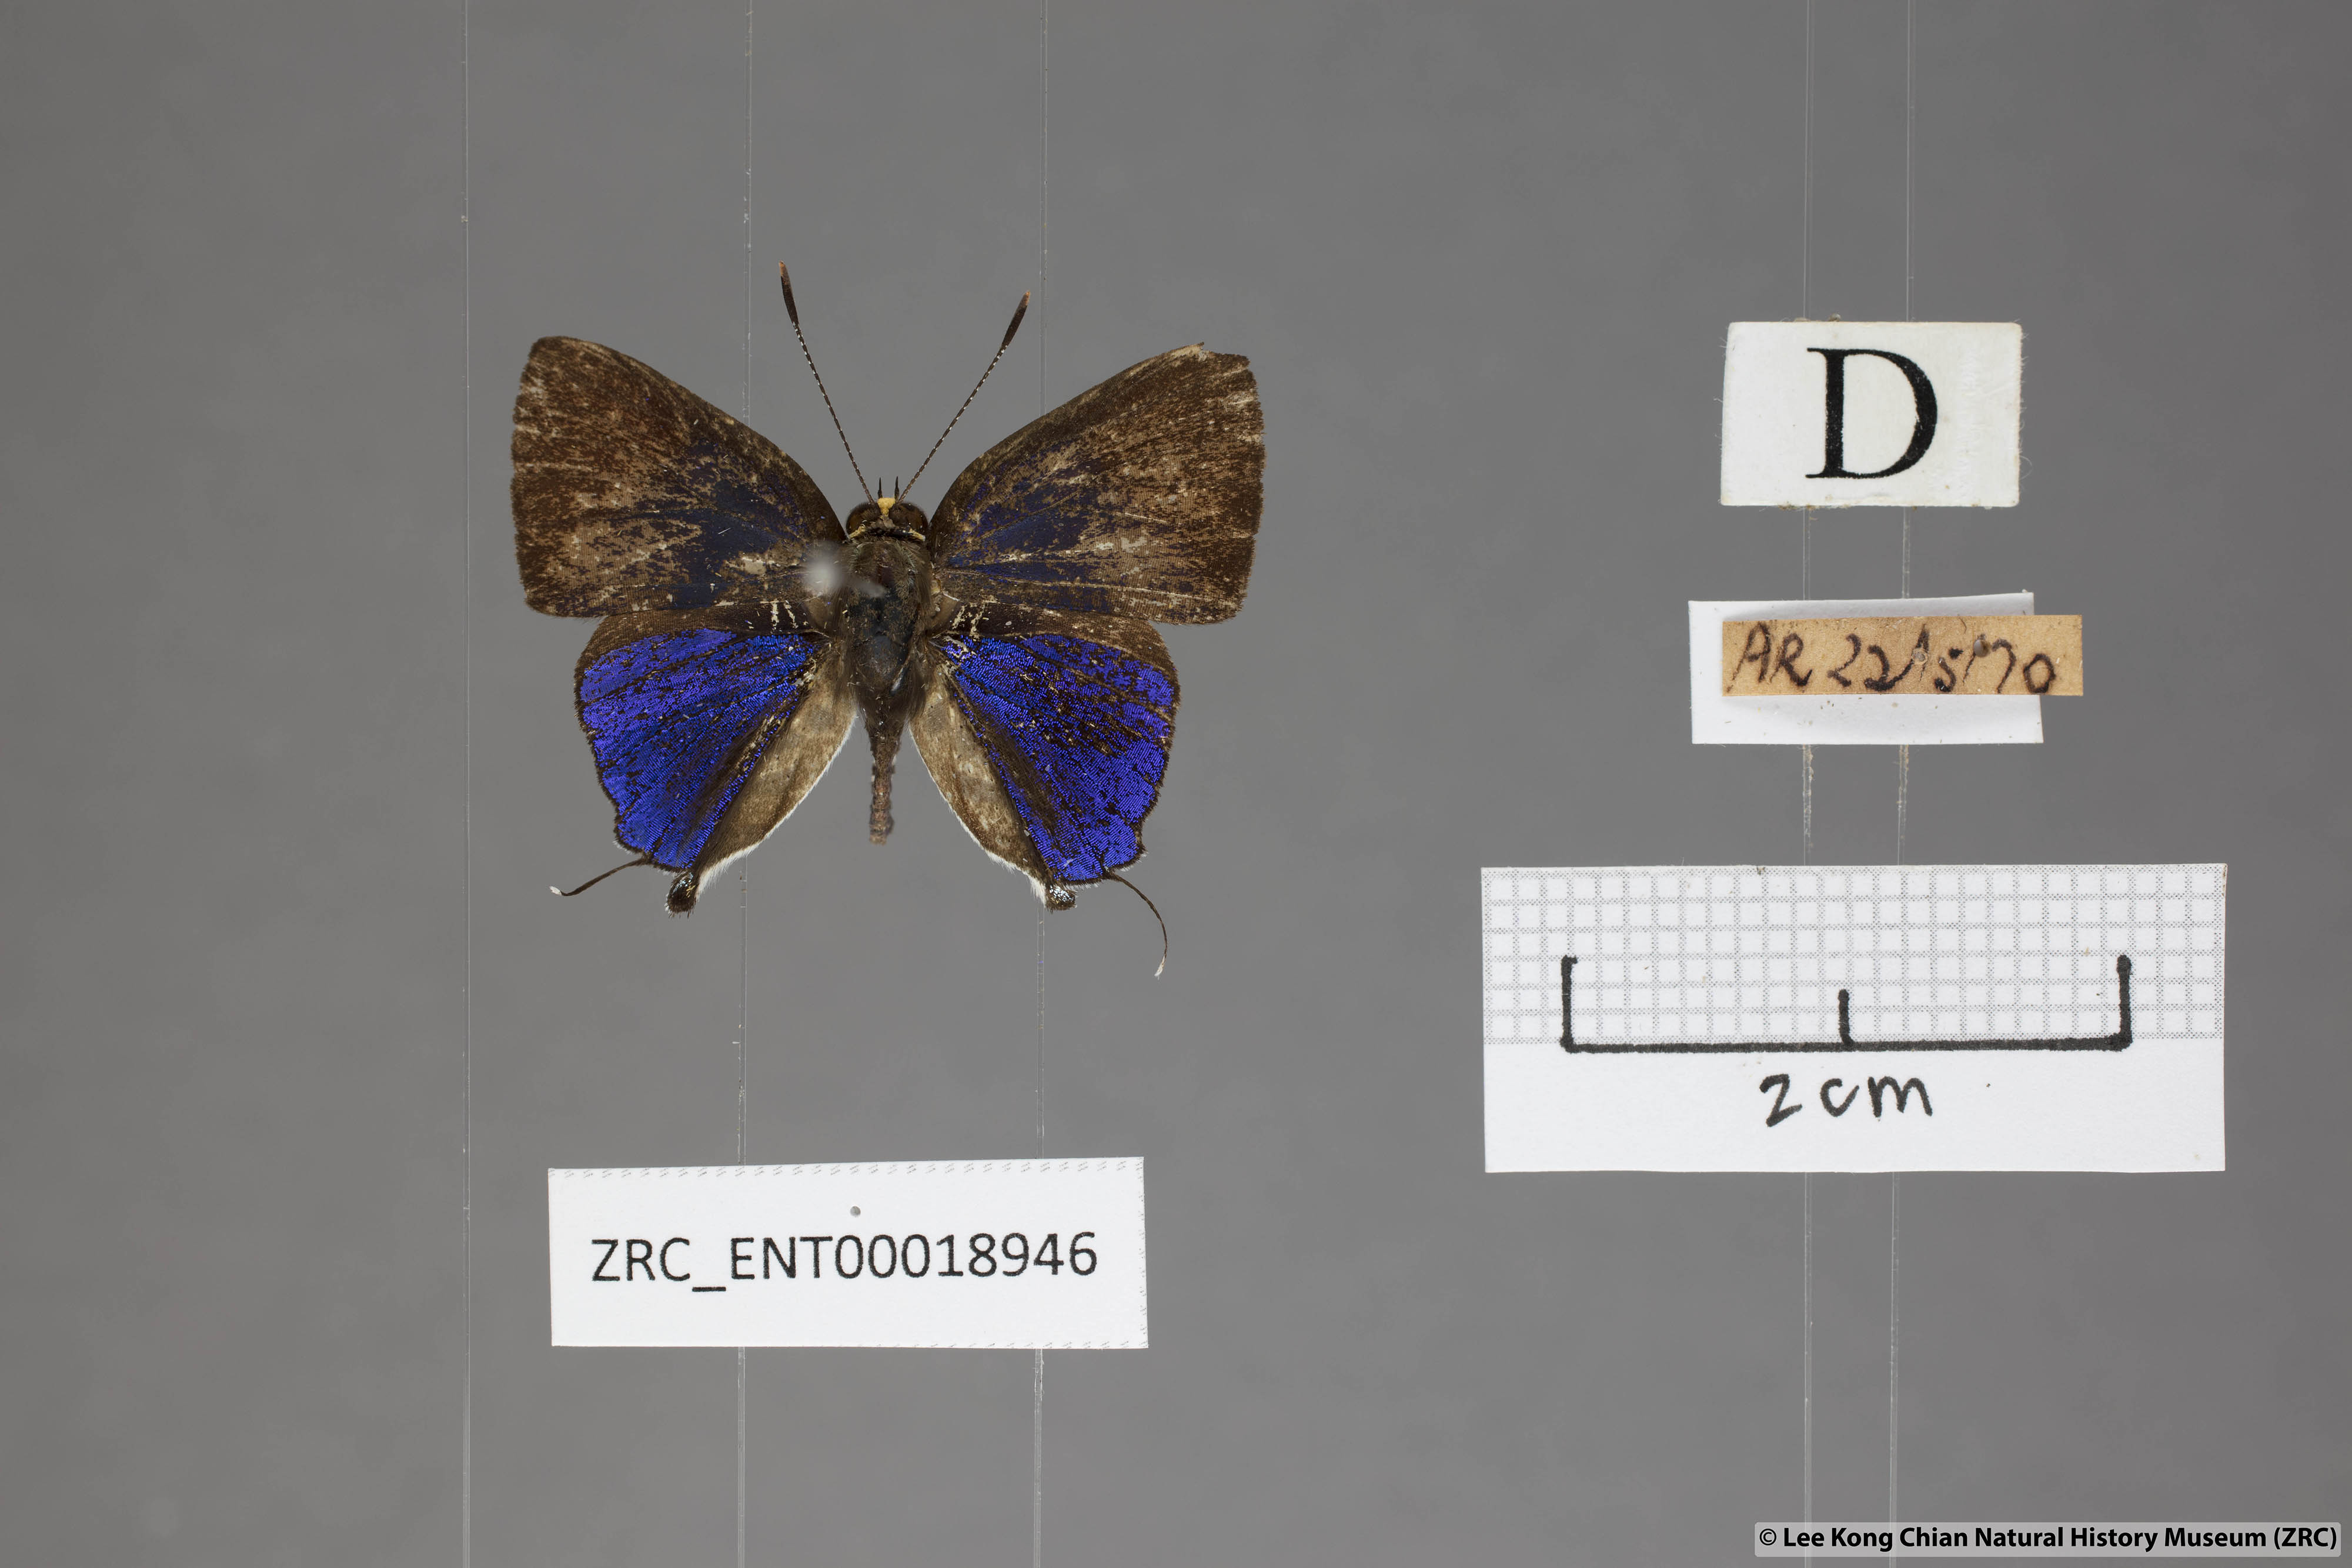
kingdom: Animalia
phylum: Arthropoda
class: Insecta
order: Lepidoptera
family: Lycaenidae
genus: Araotes
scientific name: Araotes lapithis
